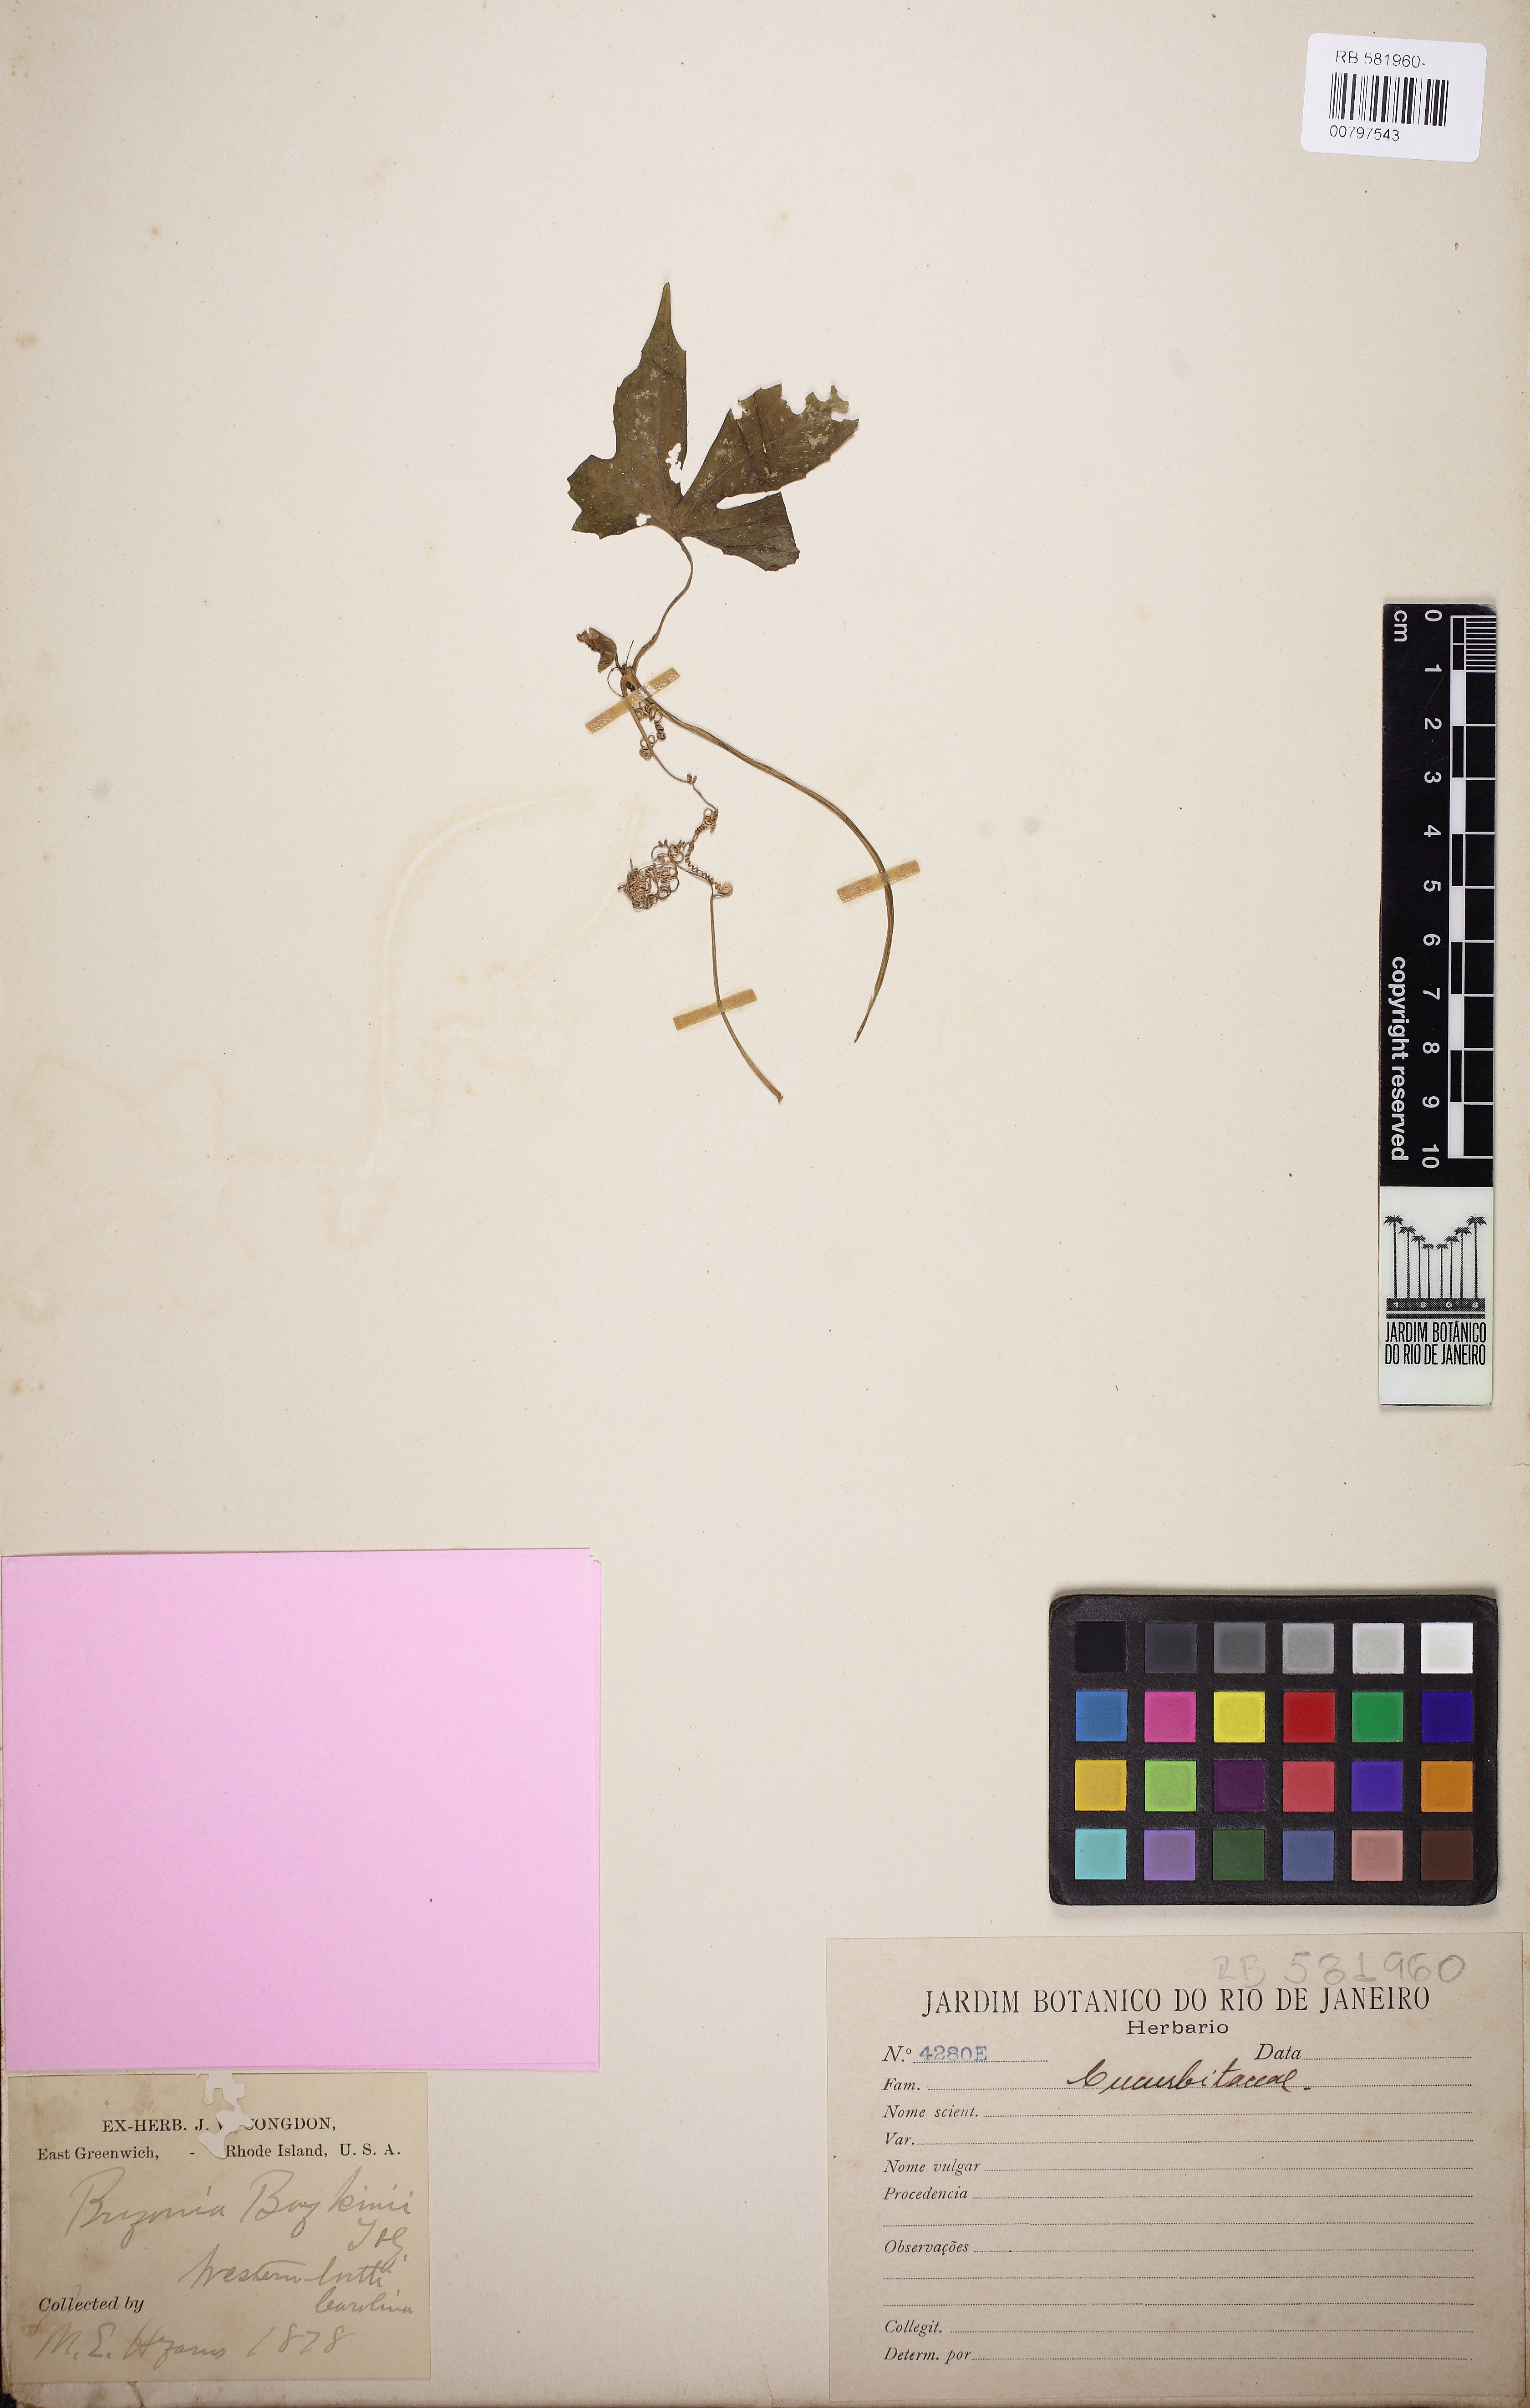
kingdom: Plantae
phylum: Tracheophyta
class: Magnoliopsida
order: Cucurbitales
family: Cucurbitaceae
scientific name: Cucurbitaceae
